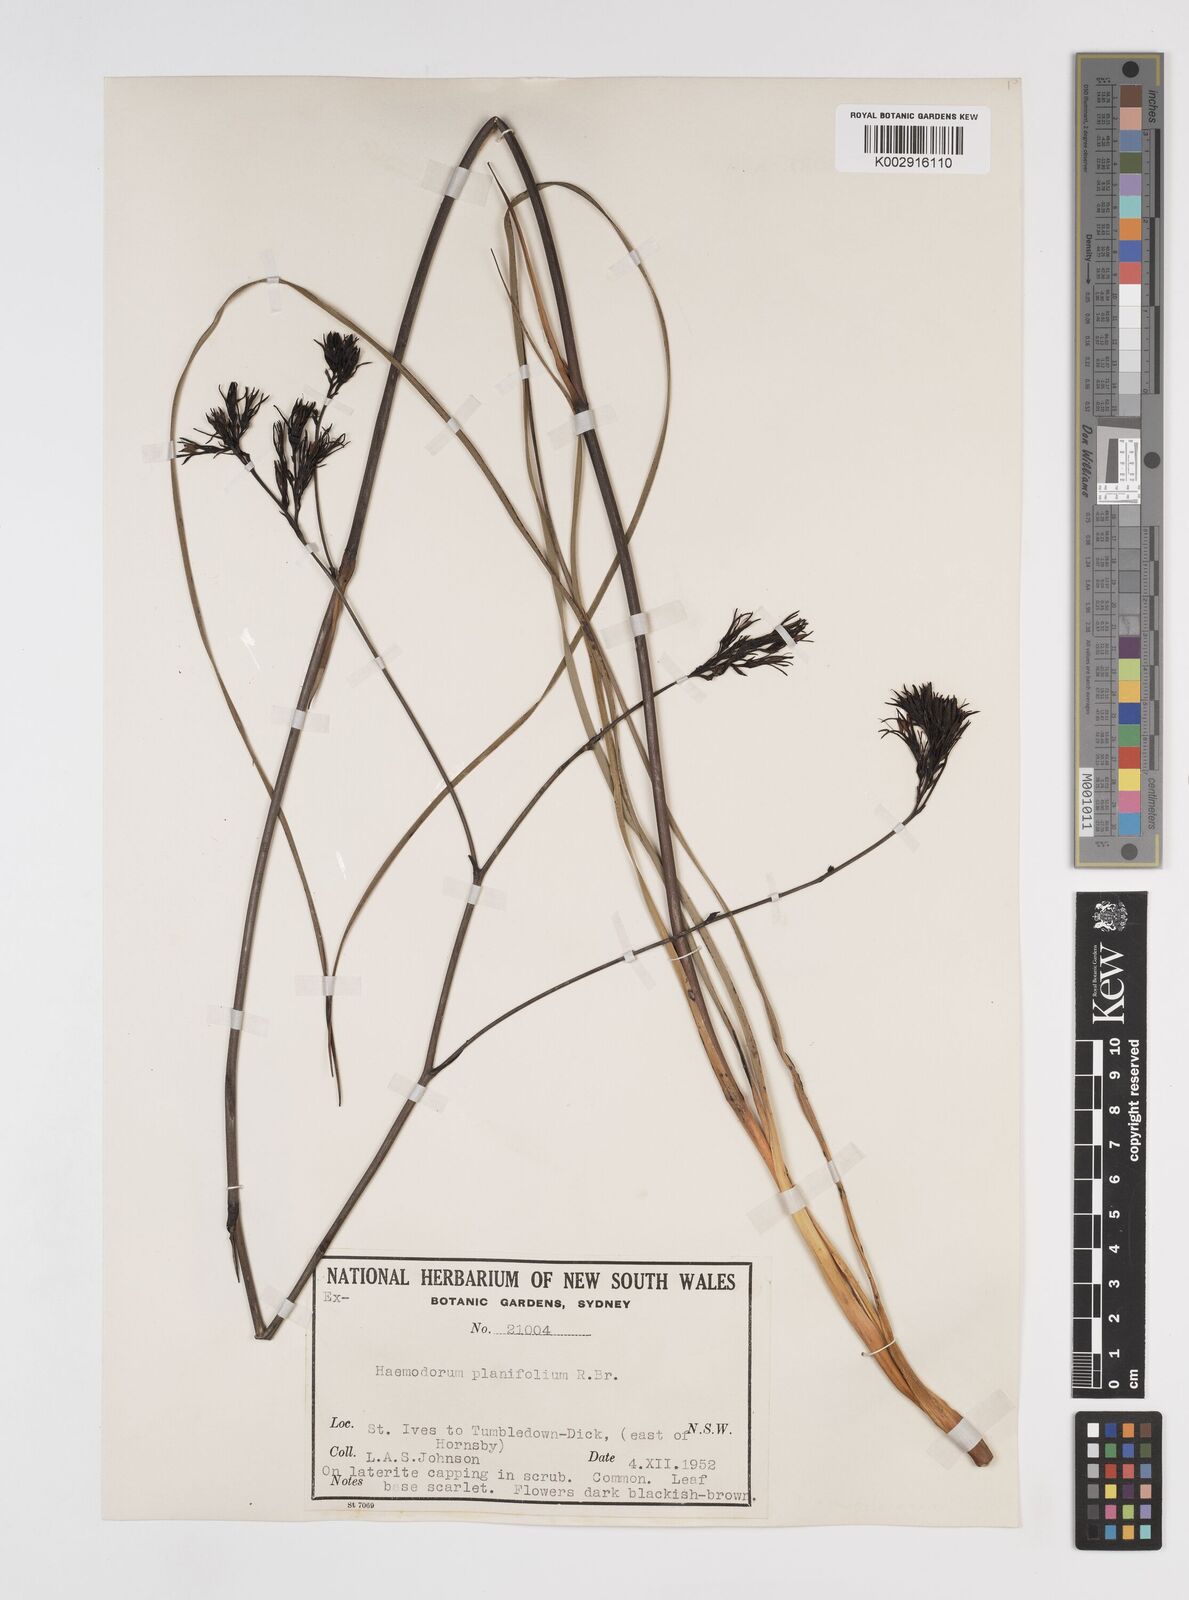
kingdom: Plantae
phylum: Tracheophyta
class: Liliopsida
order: Commelinales
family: Haemodoraceae
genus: Haemodorum
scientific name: Haemodorum planifolium
